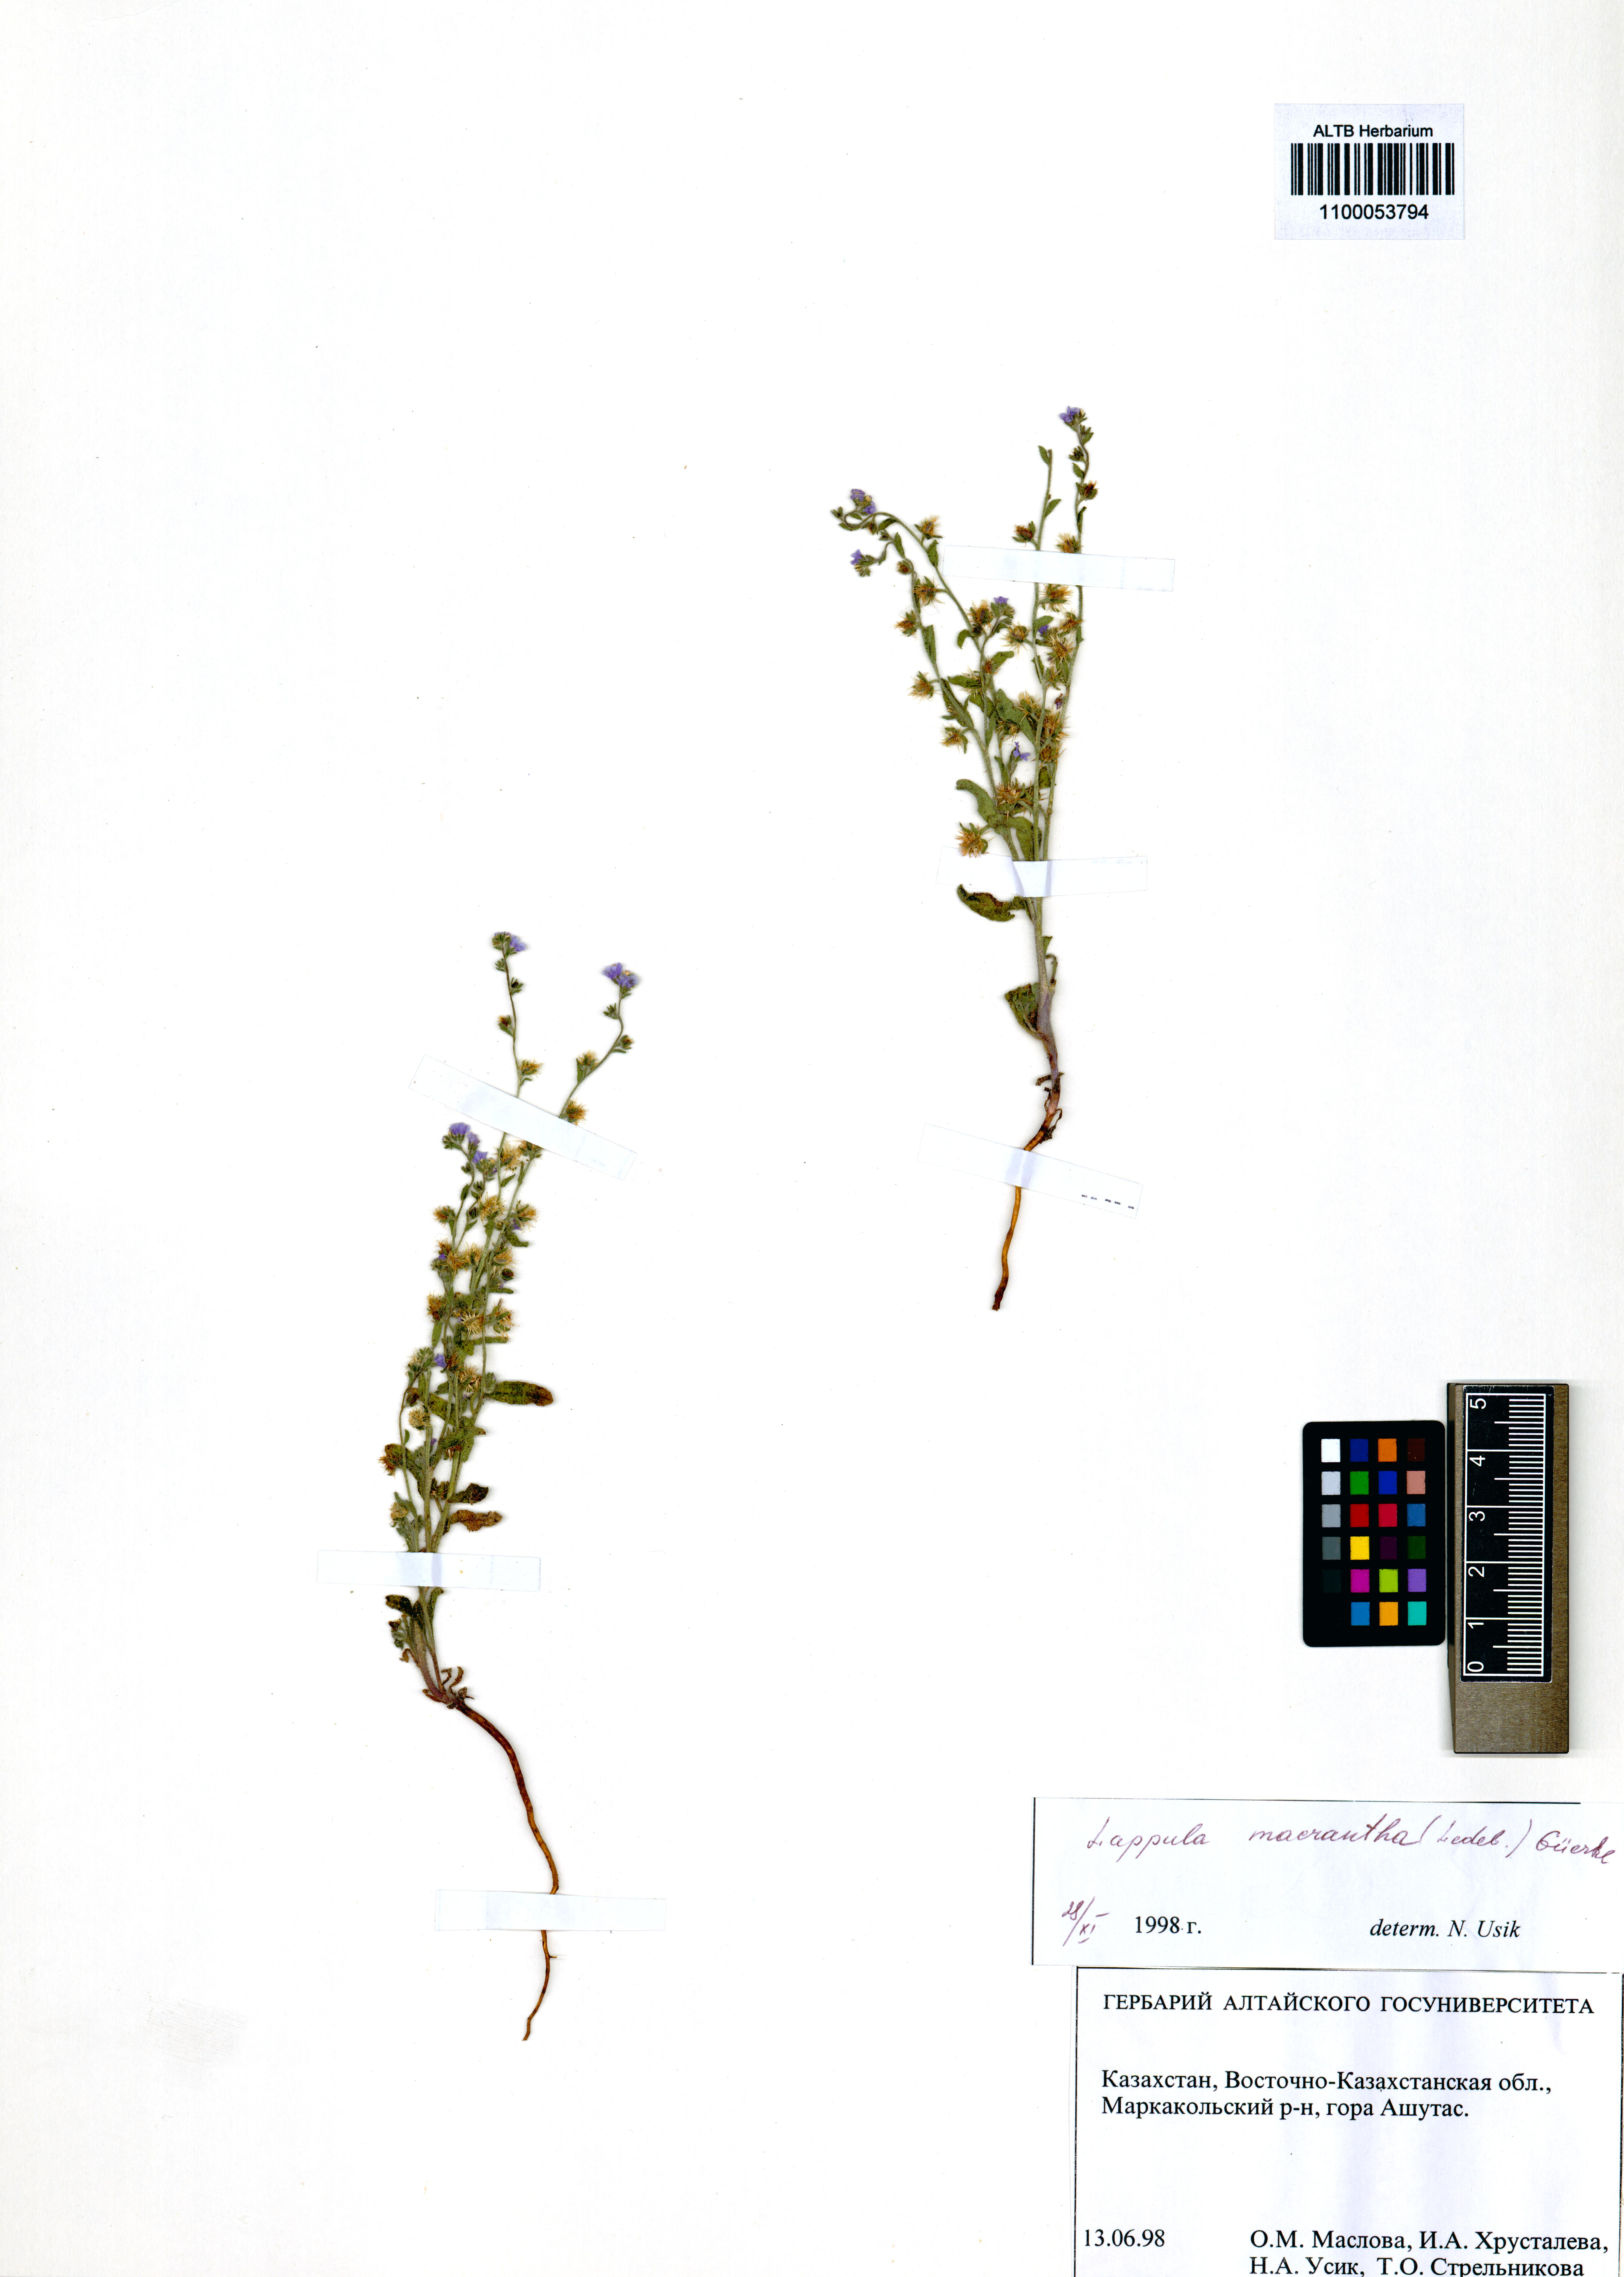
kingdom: Plantae
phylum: Tracheophyta
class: Magnoliopsida
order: Boraginales
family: Boraginaceae
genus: Lappula
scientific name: Lappula macrantha
